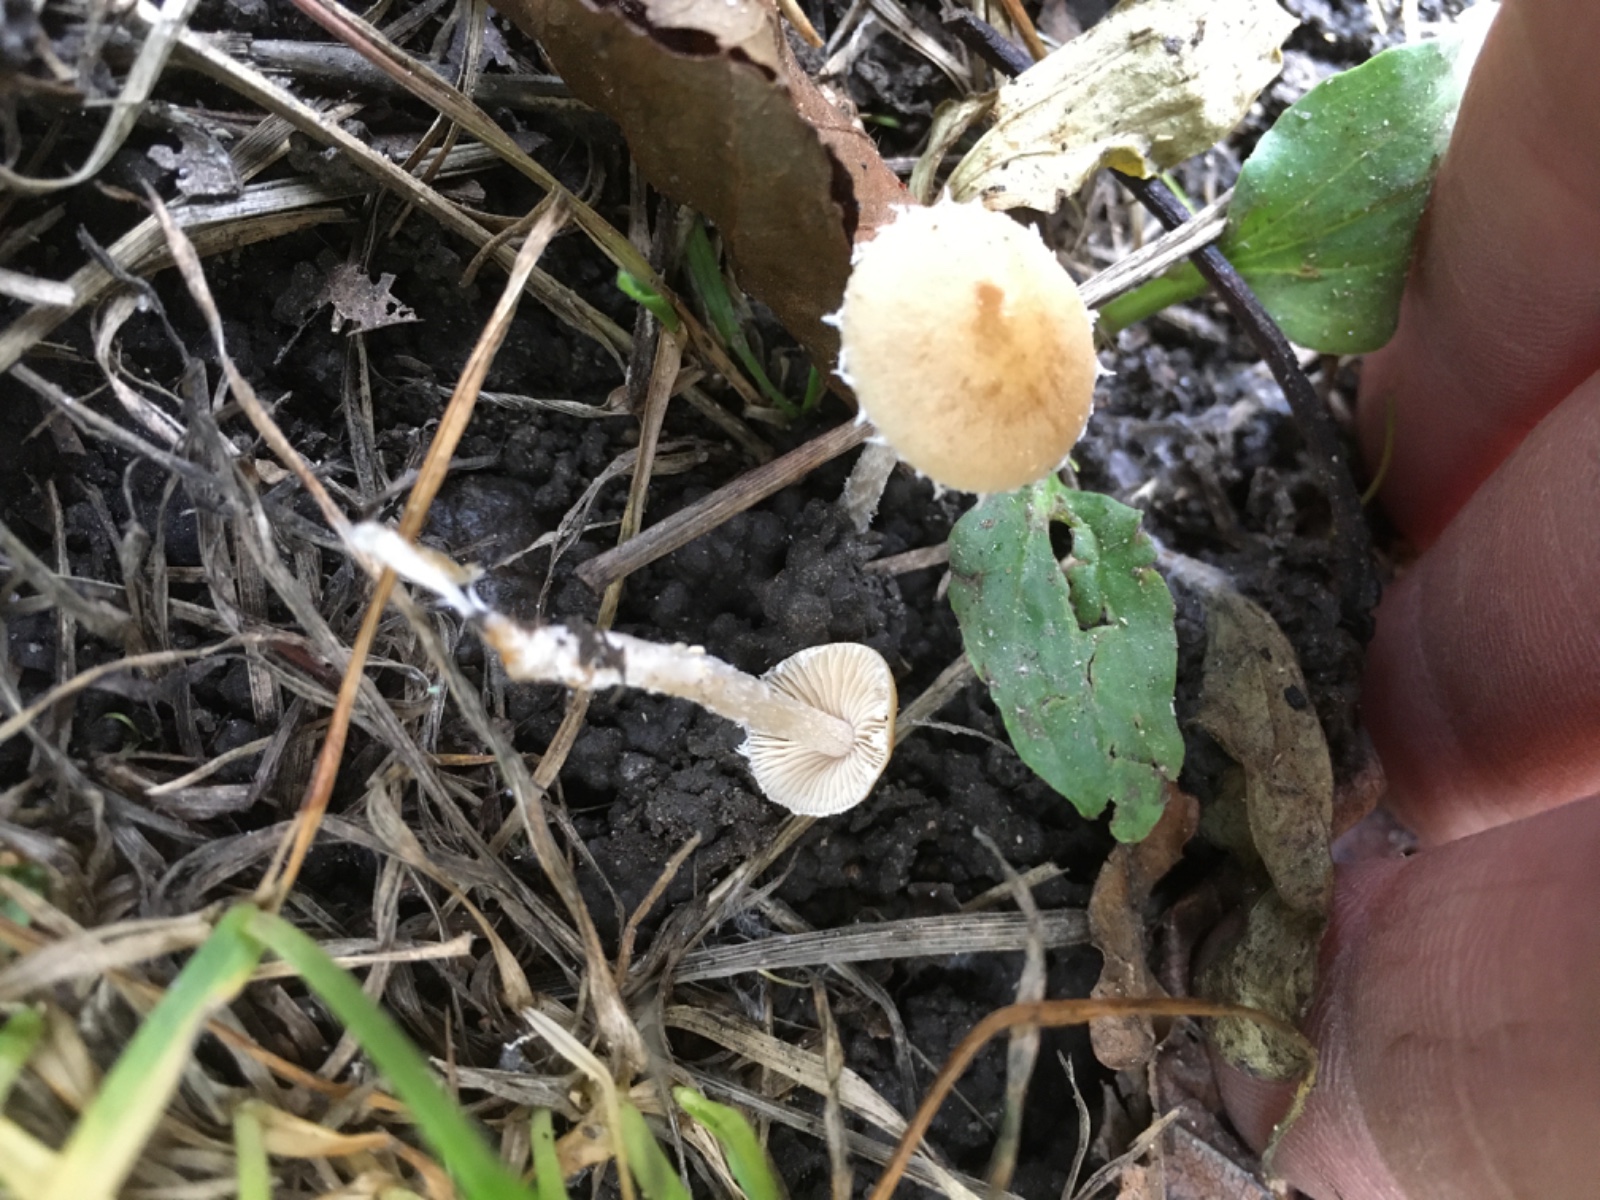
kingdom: Fungi
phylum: Basidiomycota
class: Agaricomycetes
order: Agaricales
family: Tricholomataceae
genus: Cystoderma
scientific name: Cystoderma amianthinum
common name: okkergul grynhat
